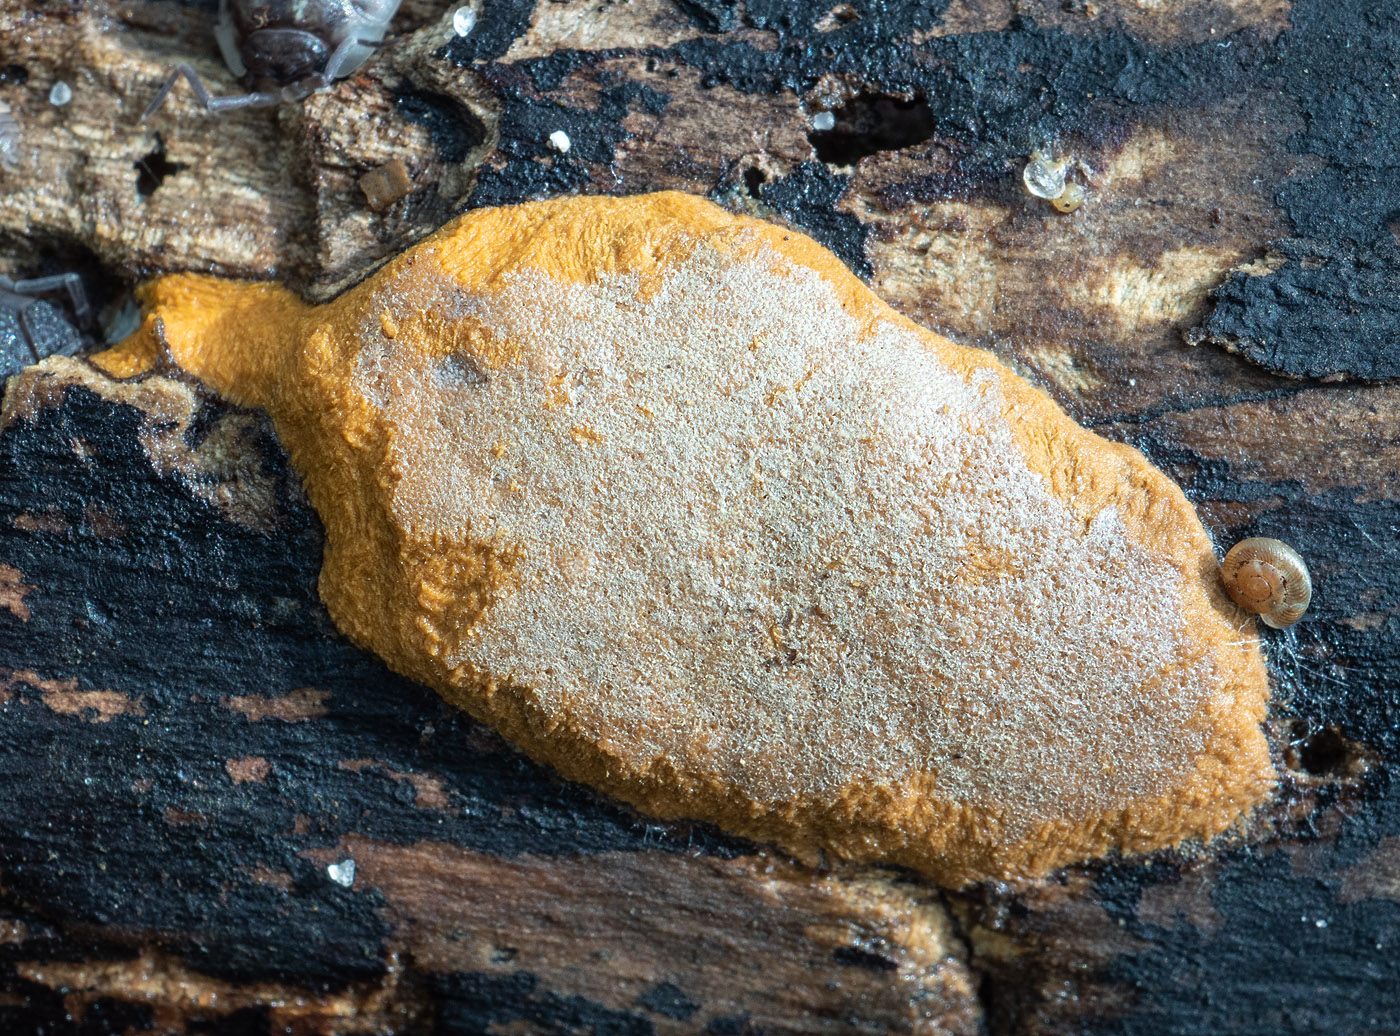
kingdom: Protozoa
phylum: Mycetozoa
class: Myxomycetes
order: Trichiales
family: Dictydiaethaliaceae
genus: Dictydiaethalium
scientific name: Dictydiaethalium plumbeum
